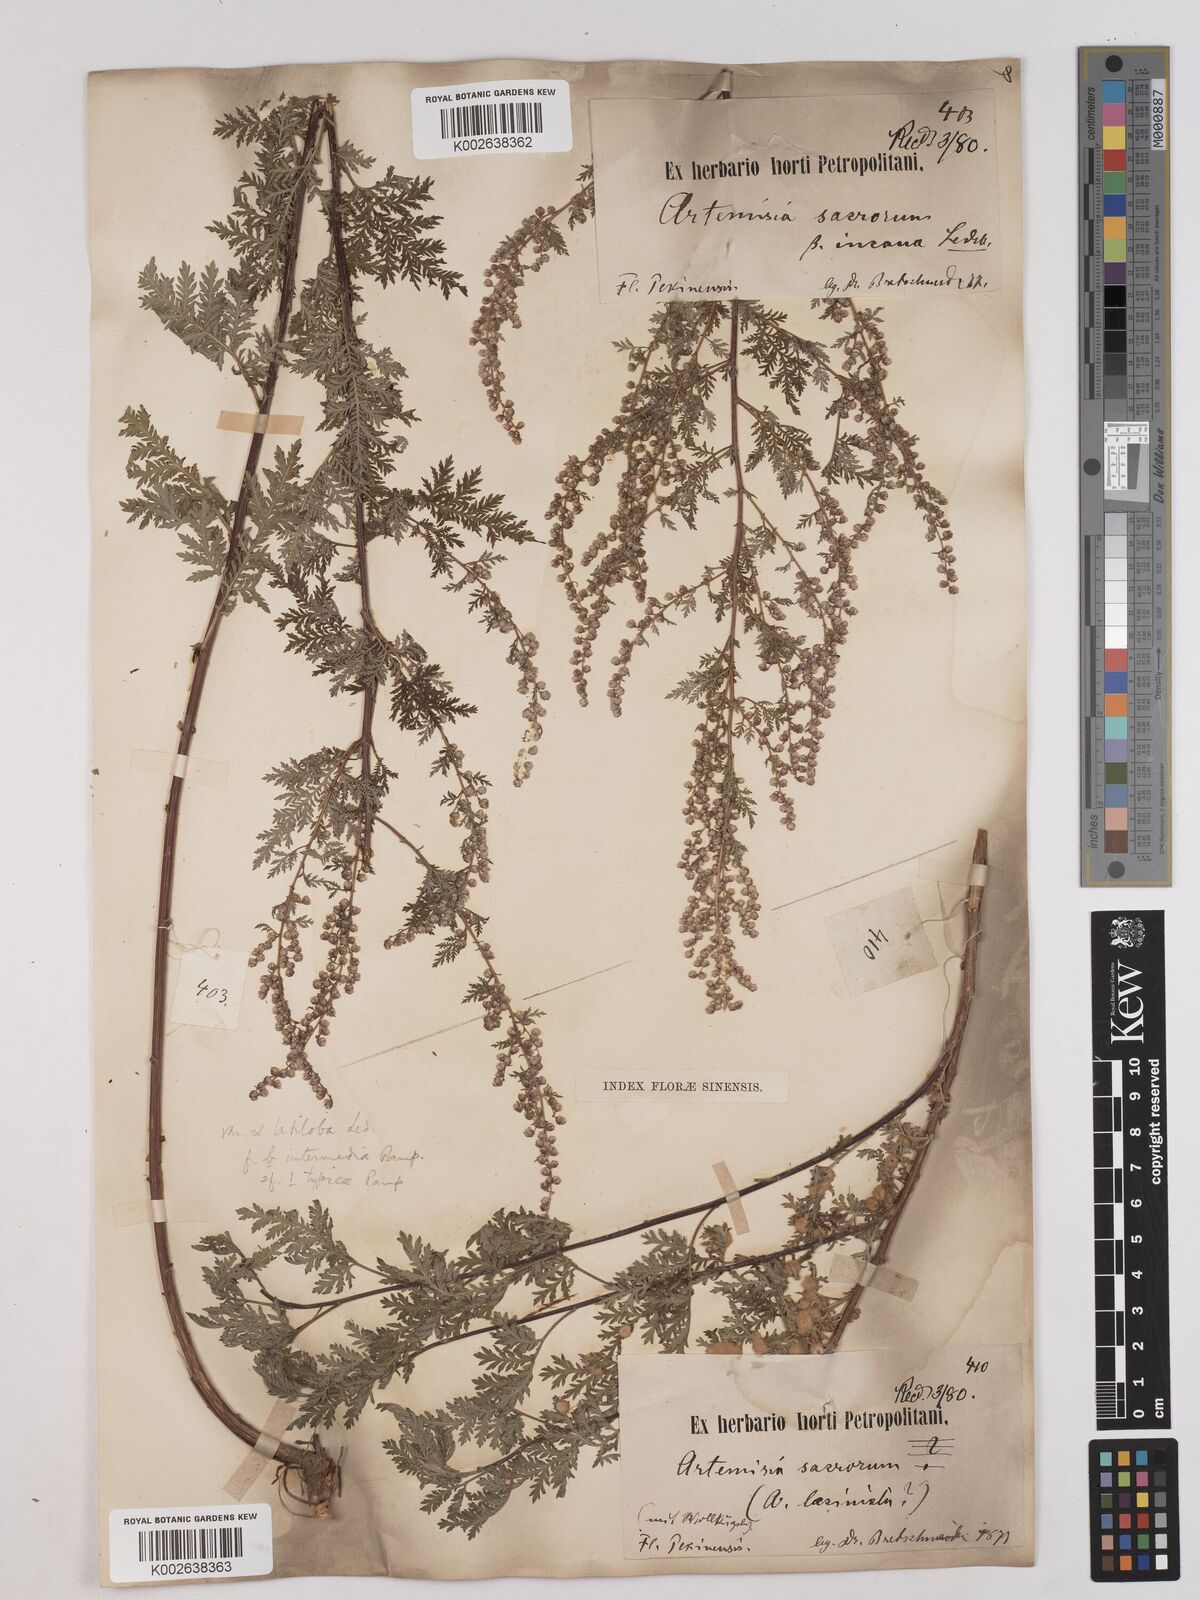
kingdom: Plantae
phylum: Tracheophyta
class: Magnoliopsida
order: Asterales
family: Asteraceae
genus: Artemisia
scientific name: Artemisia gmelinii
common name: Gmelin's wormwood
